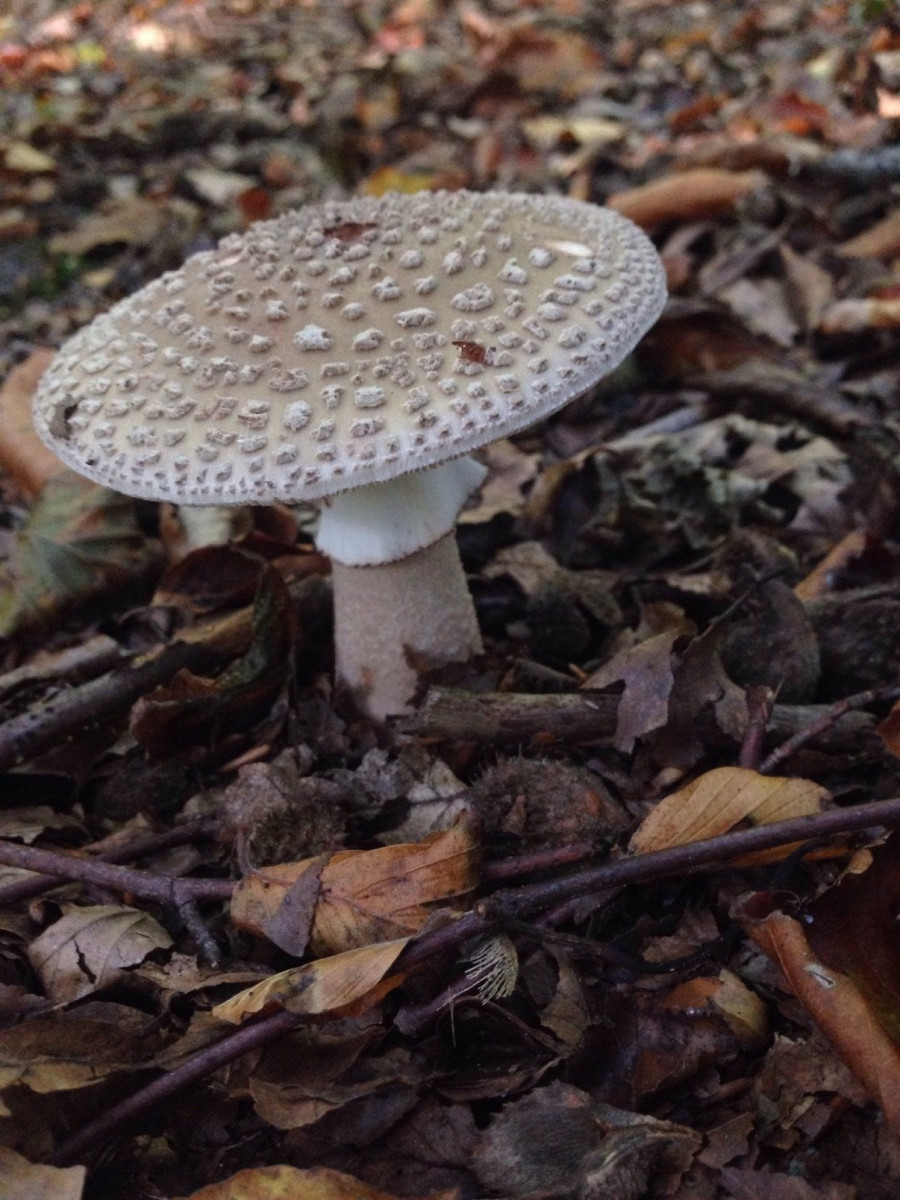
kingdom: Fungi
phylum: Basidiomycota
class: Agaricomycetes
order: Agaricales
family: Amanitaceae
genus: Amanita
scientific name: Amanita rubescens
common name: rødmende fluesvamp
